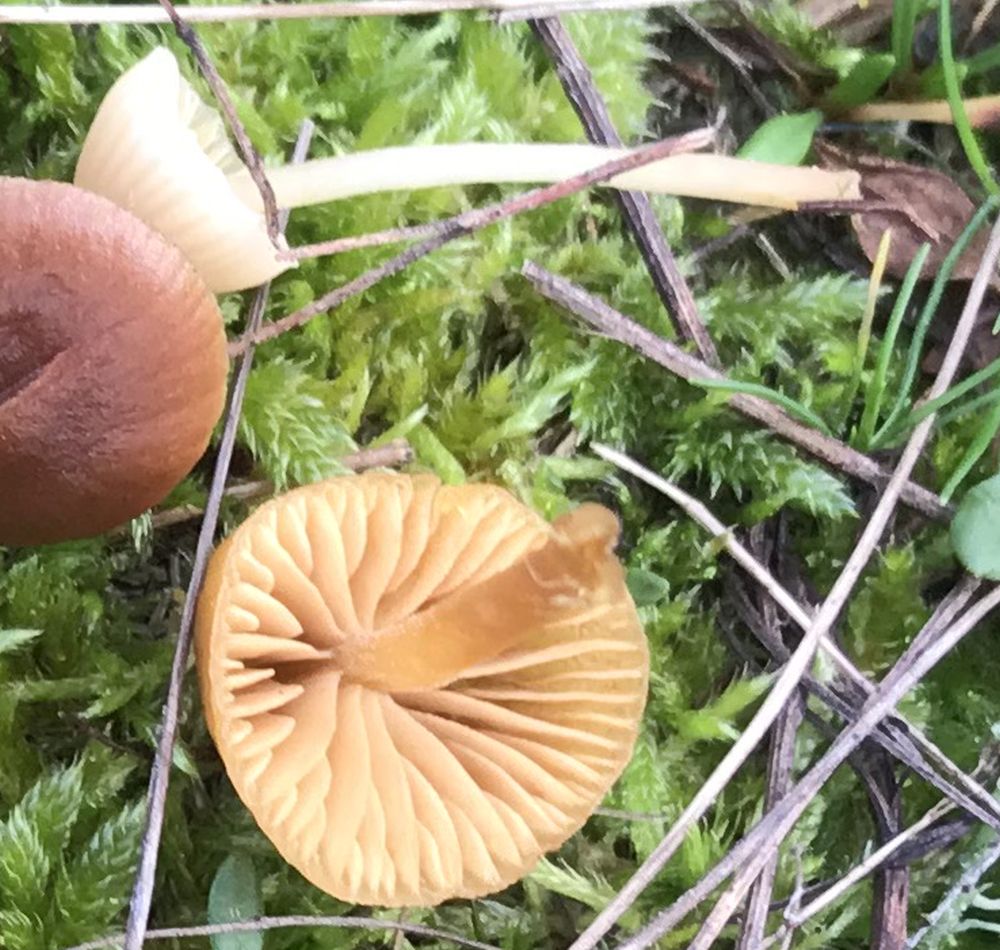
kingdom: Fungi
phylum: Basidiomycota
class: Agaricomycetes
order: Agaricales
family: Hymenogastraceae
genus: Galerina
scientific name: Galerina pumila
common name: honninggul hjelmhat
